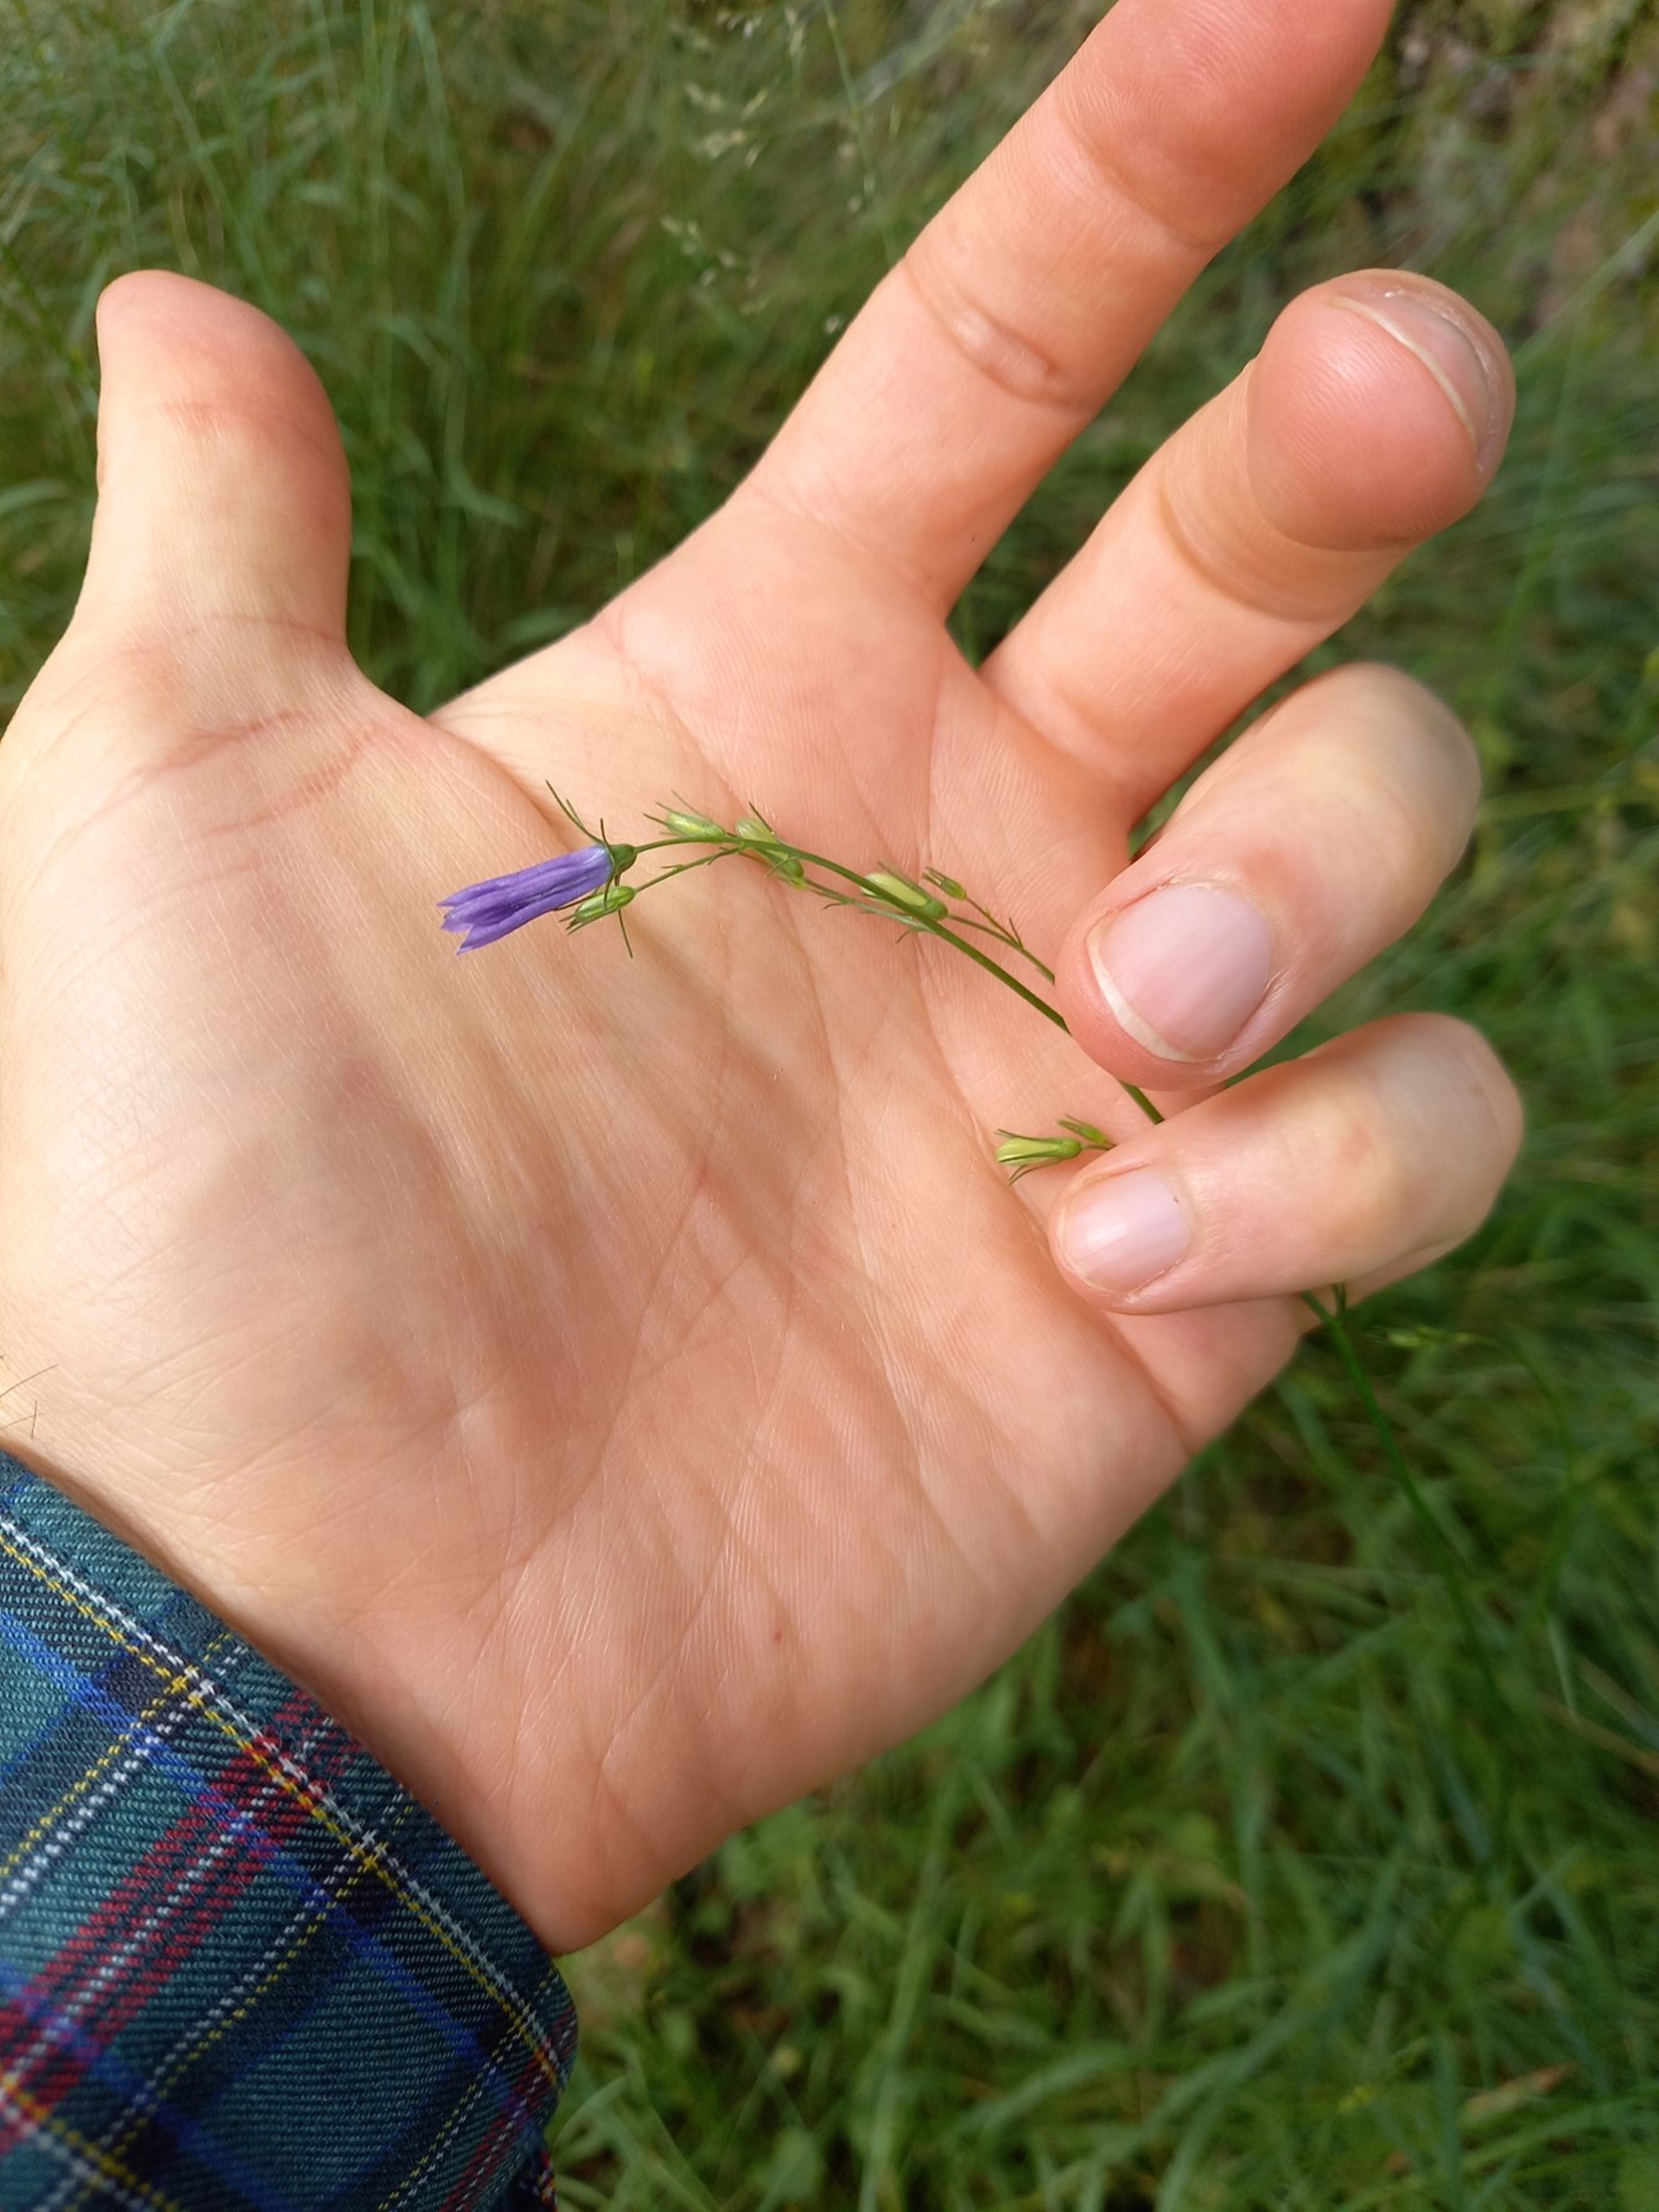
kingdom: Plantae
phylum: Tracheophyta
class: Magnoliopsida
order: Asterales
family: Campanulaceae
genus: Campanula
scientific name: Campanula rotundifolia
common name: Liden klokke
